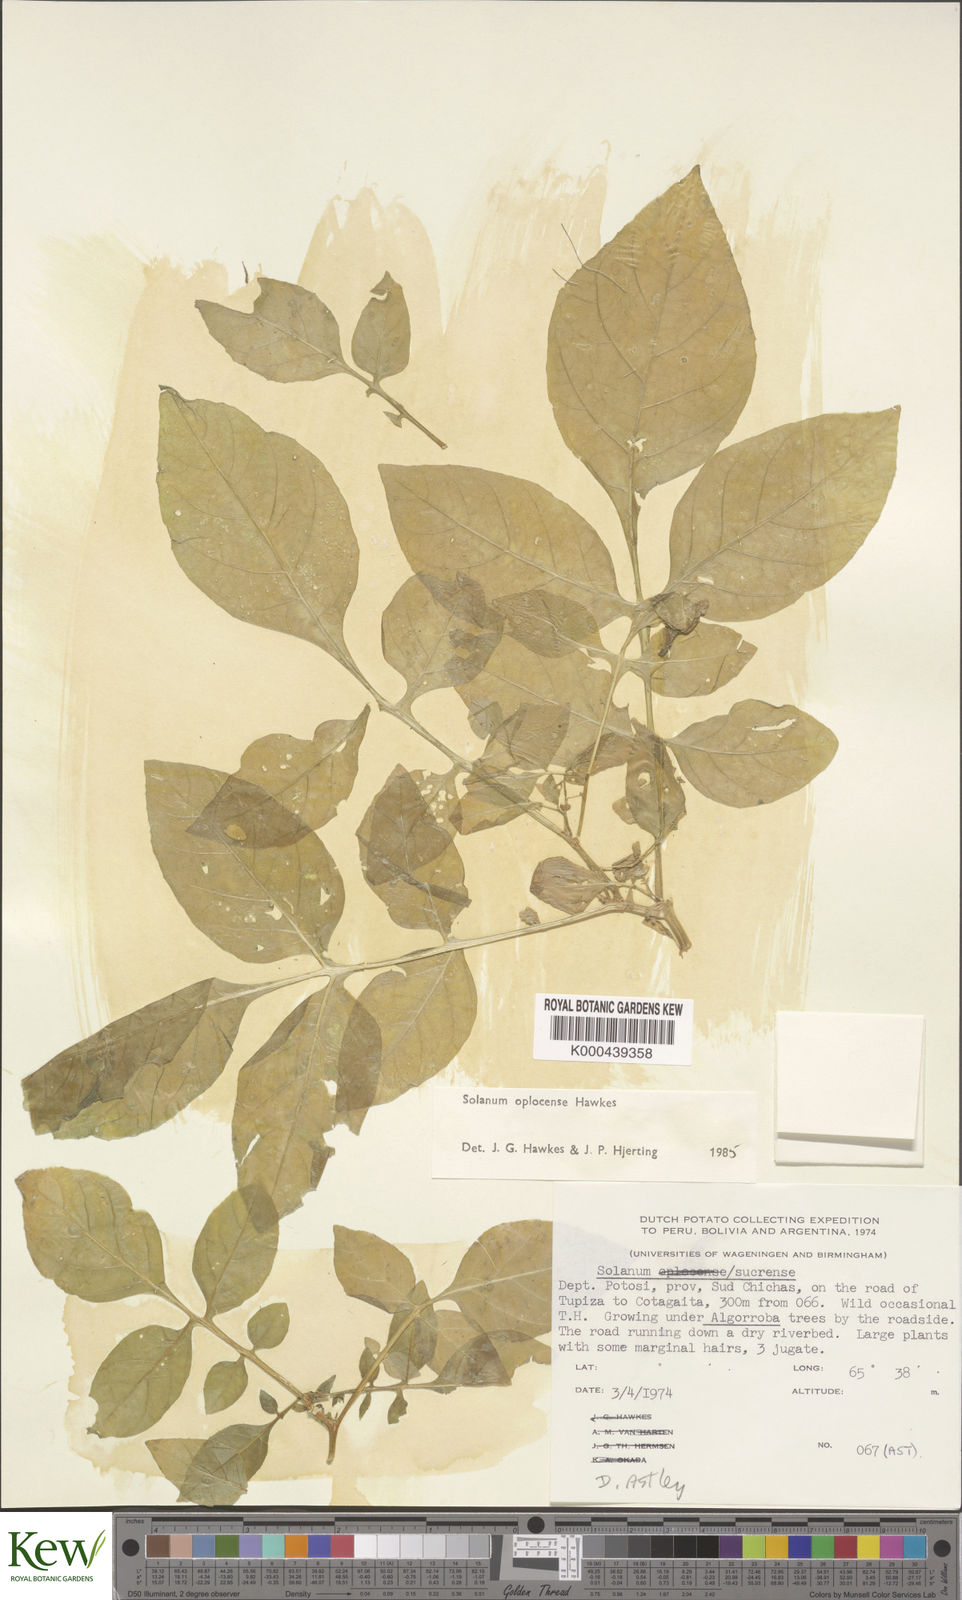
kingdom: Plantae
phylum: Tracheophyta
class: Magnoliopsida
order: Solanales
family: Solanaceae
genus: Solanum
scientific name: Solanum brevicaule
